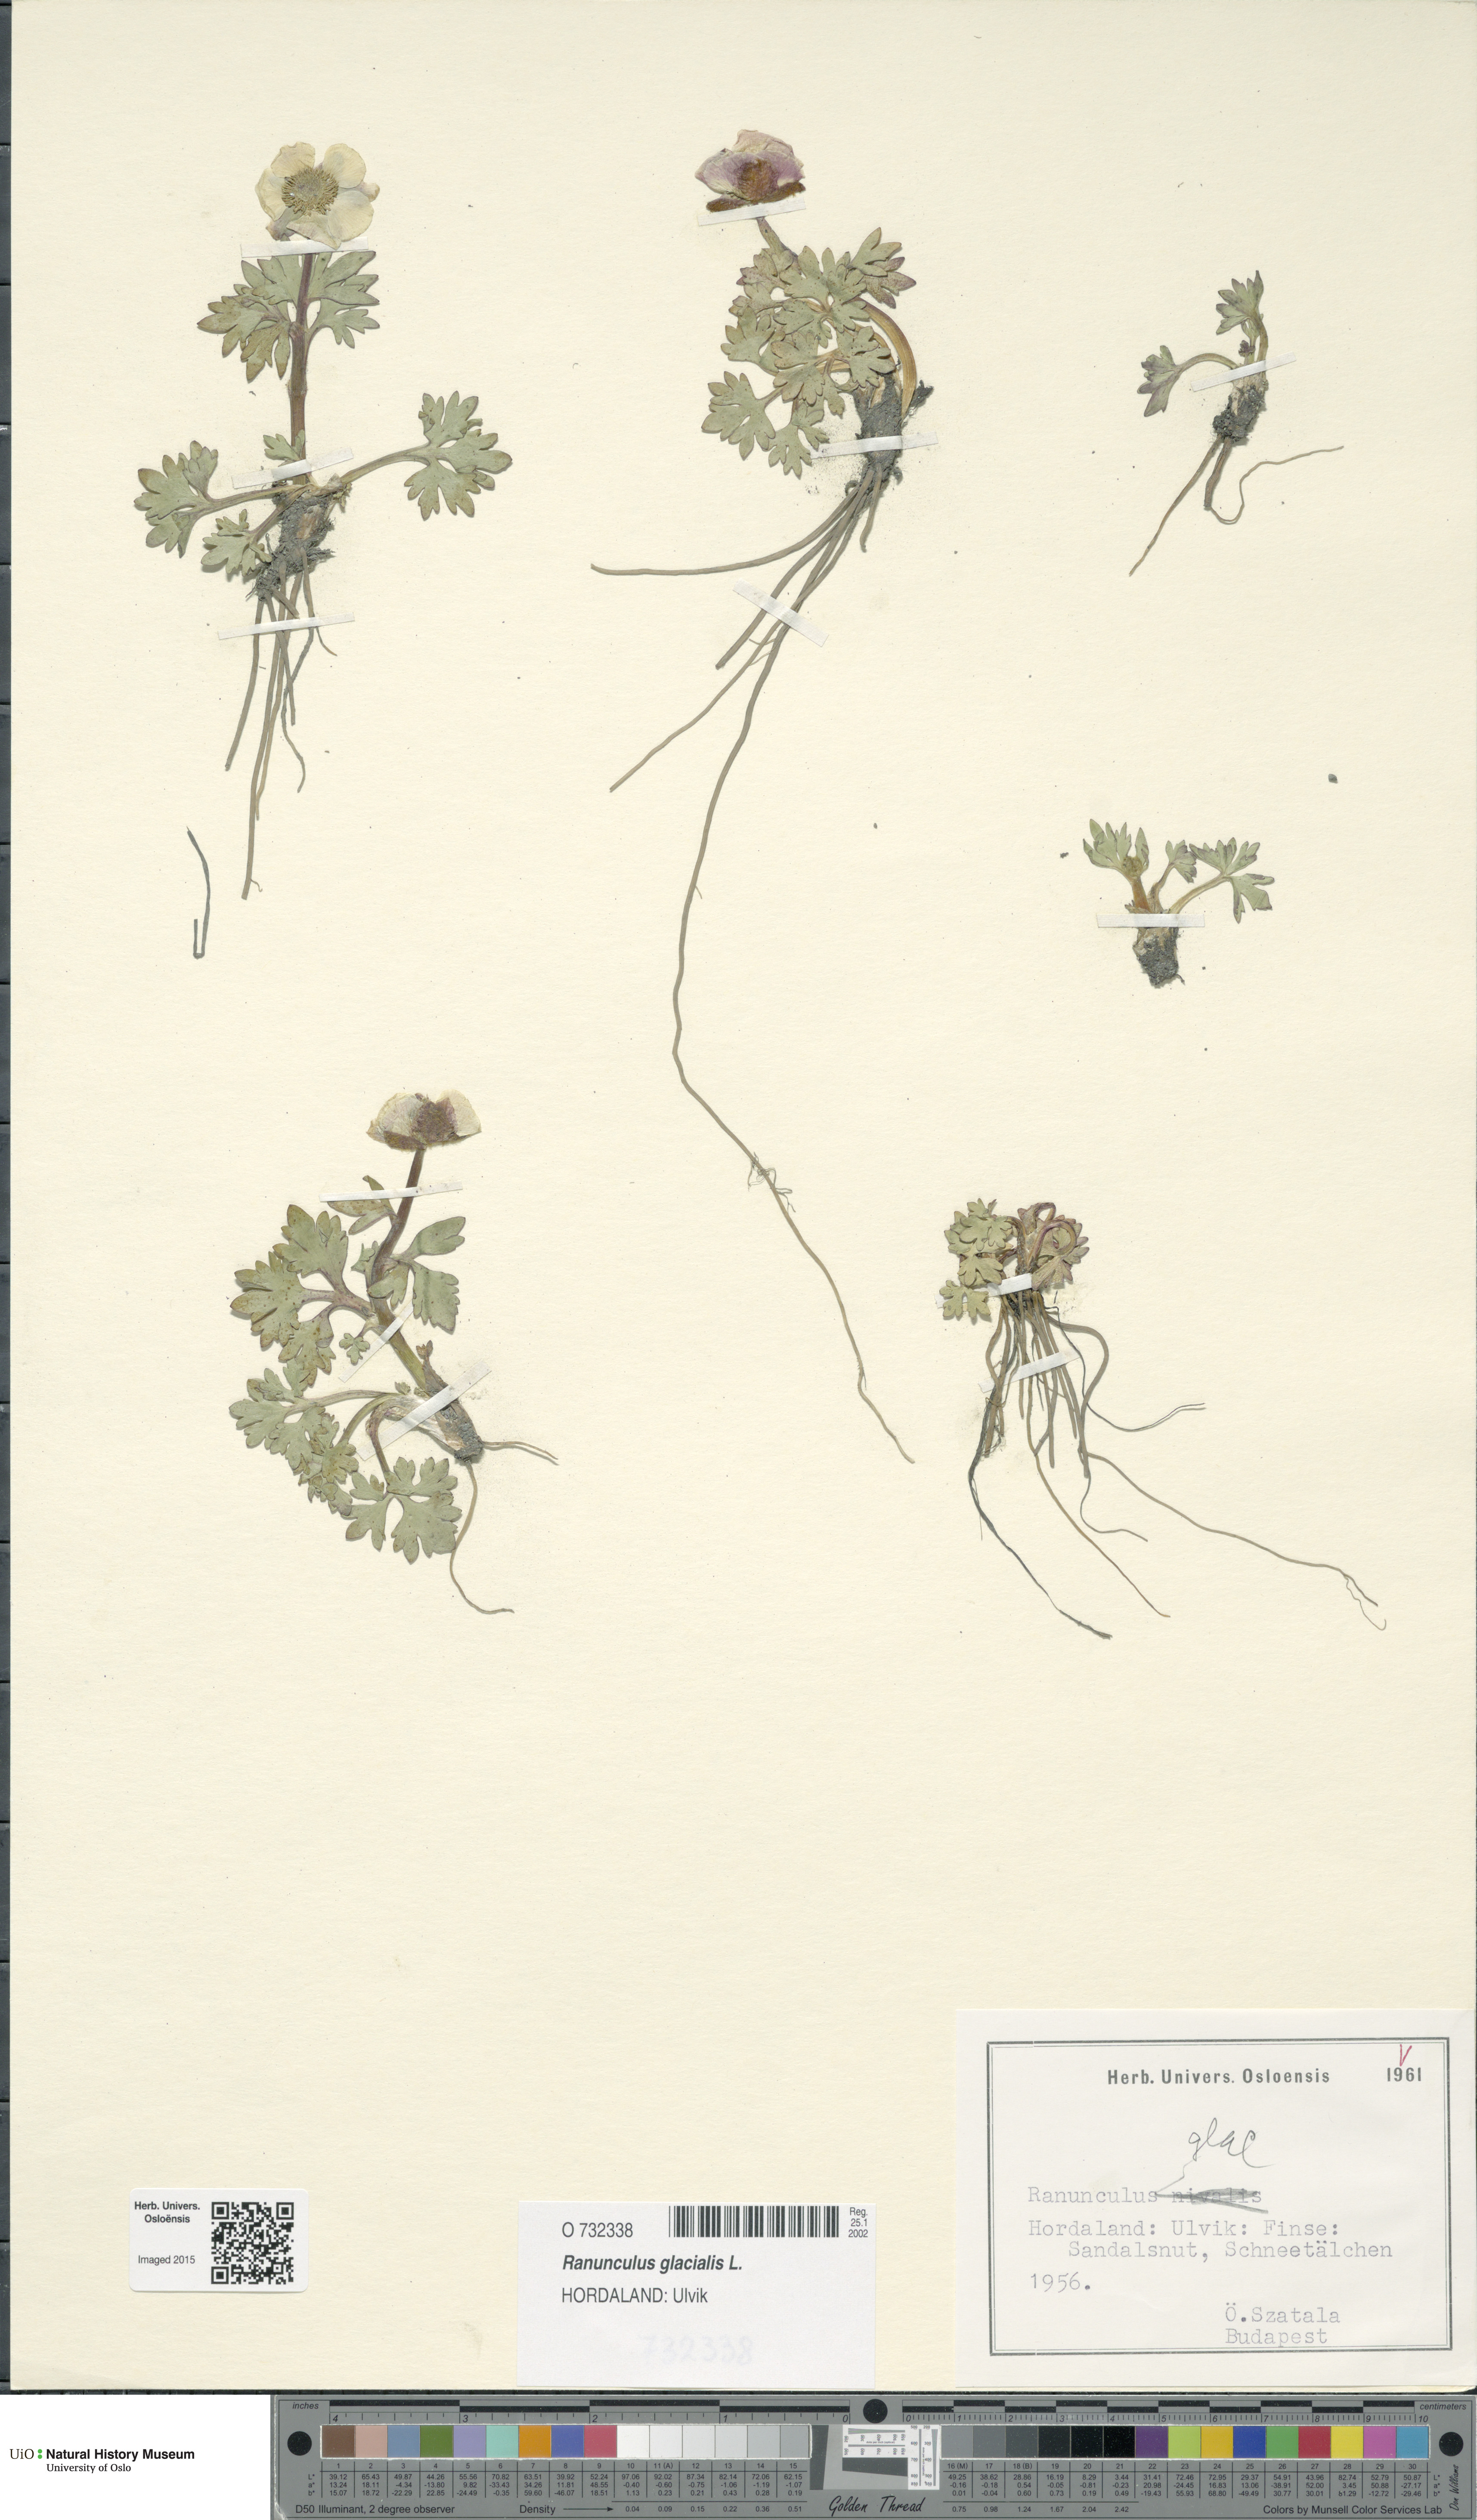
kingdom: Plantae
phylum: Tracheophyta
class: Magnoliopsida
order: Ranunculales
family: Ranunculaceae
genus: Ranunculus
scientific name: Ranunculus glacialis
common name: Glacier buttercup
